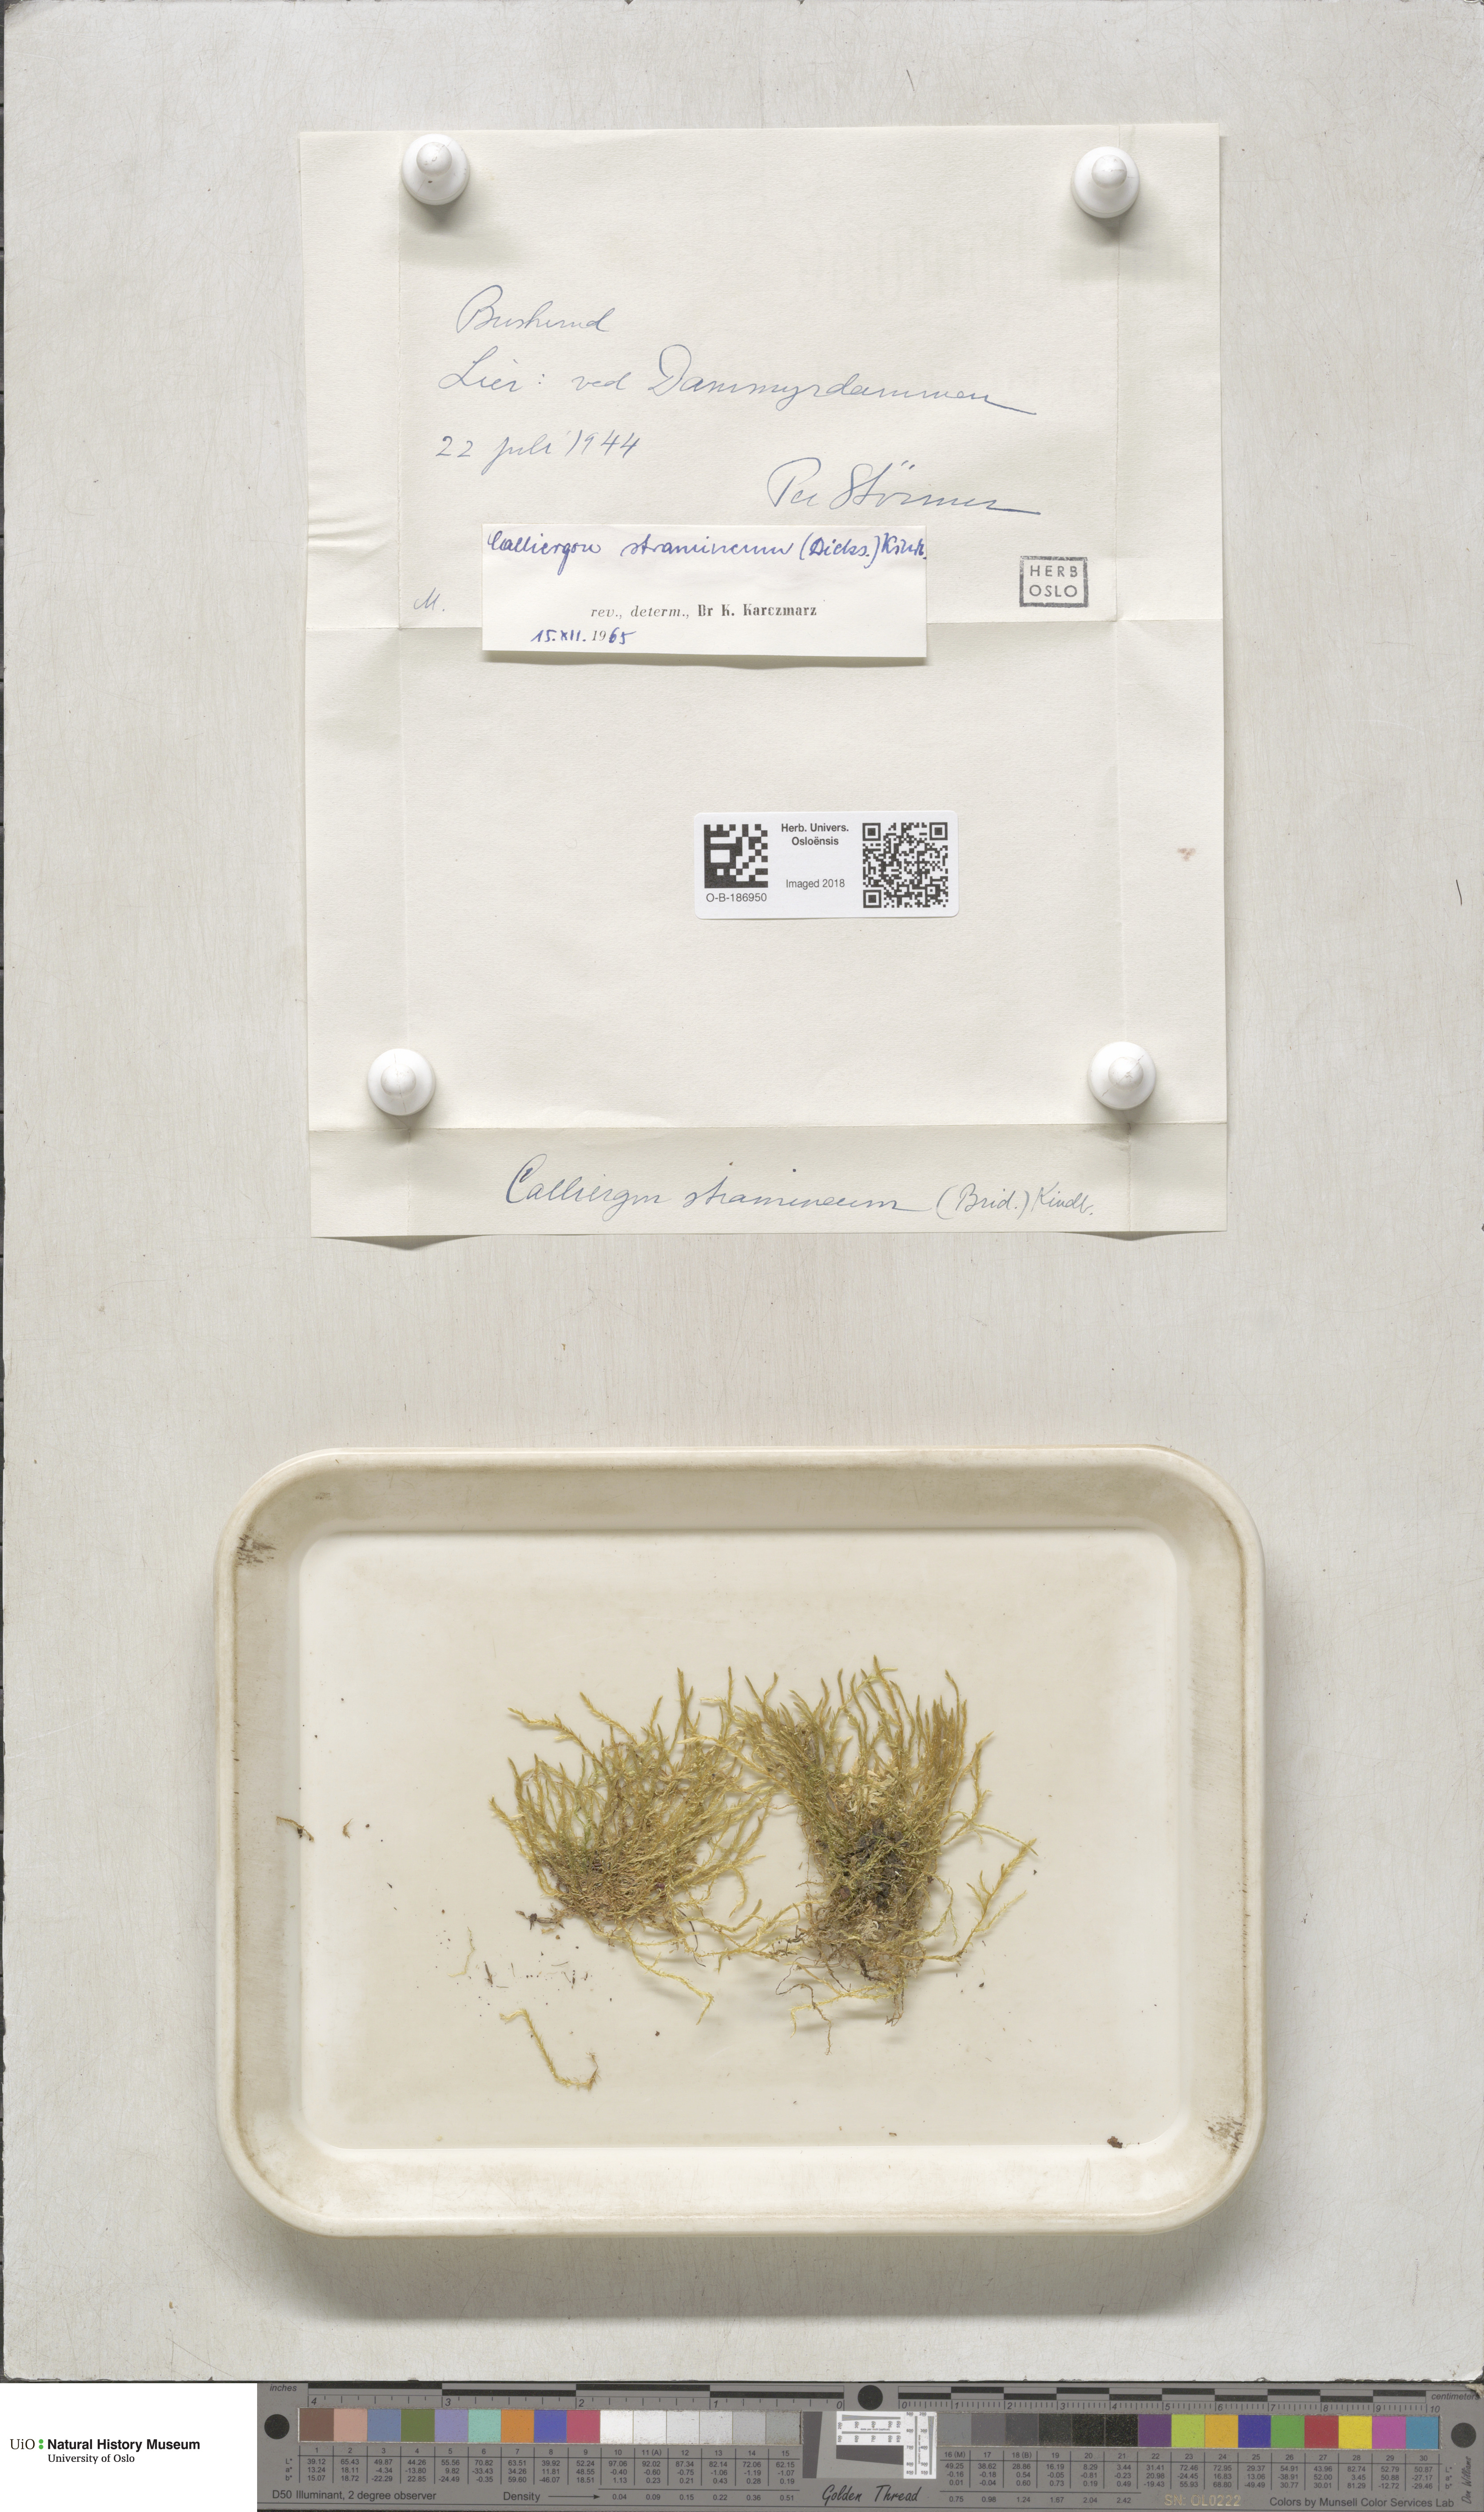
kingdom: Plantae
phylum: Bryophyta
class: Bryopsida
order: Hypnales
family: Calliergonaceae
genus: Straminergon
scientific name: Straminergon stramineum
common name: Straw moss
